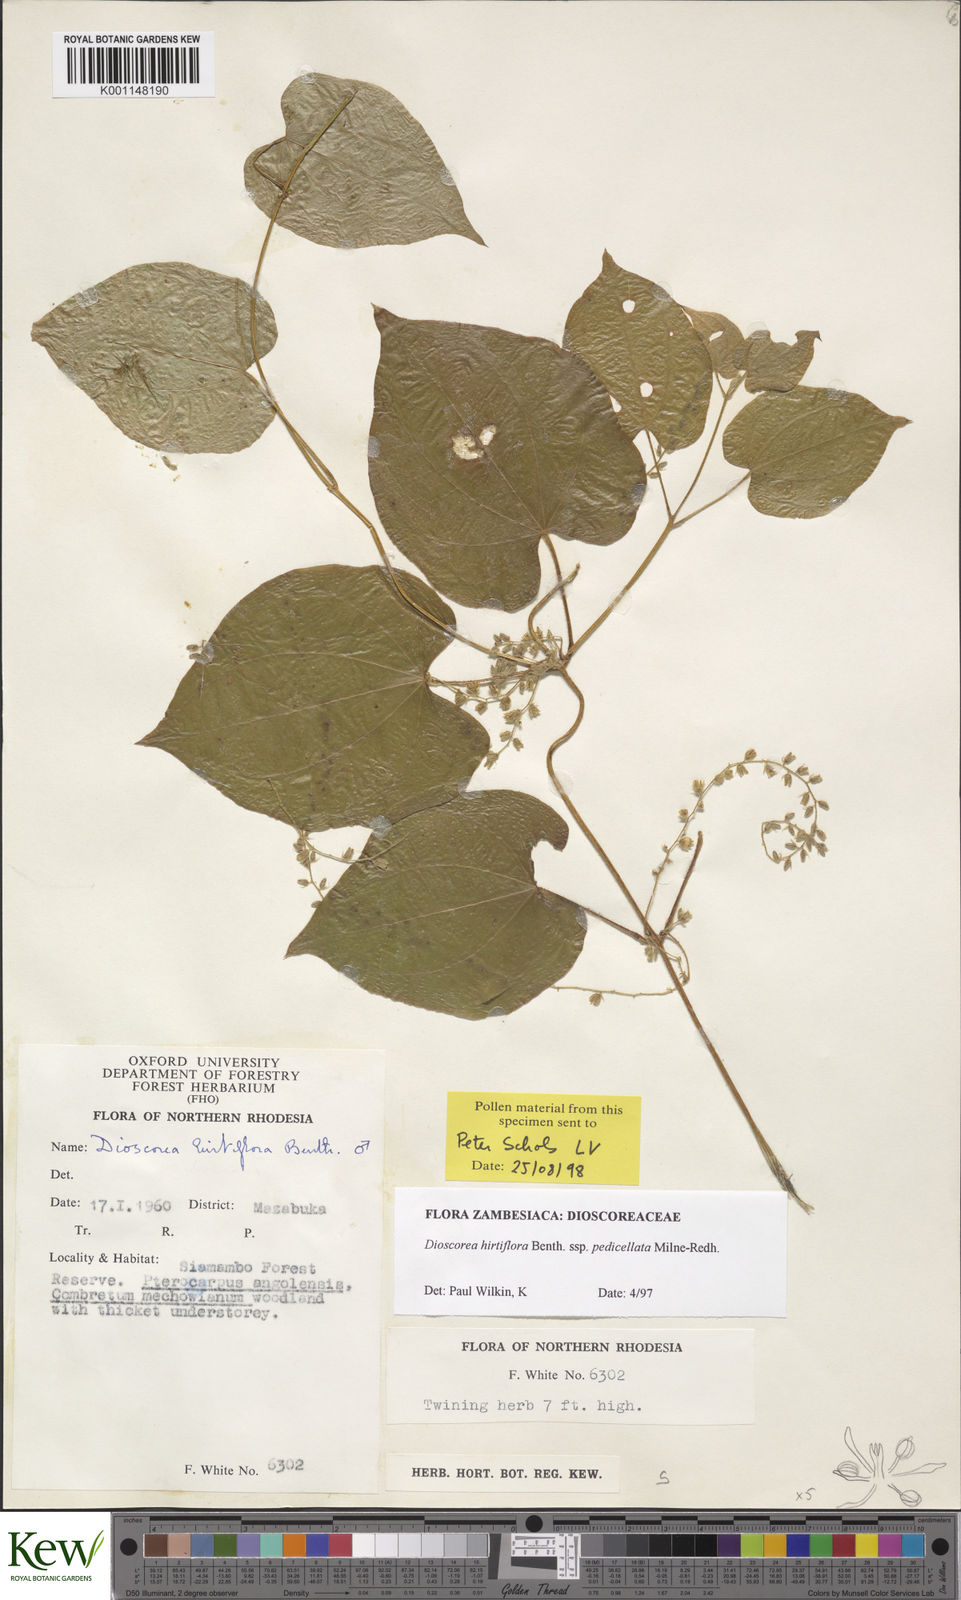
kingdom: Plantae
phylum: Tracheophyta
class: Liliopsida
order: Dioscoreales
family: Dioscoreaceae
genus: Dioscorea
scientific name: Dioscorea hirtiflora
